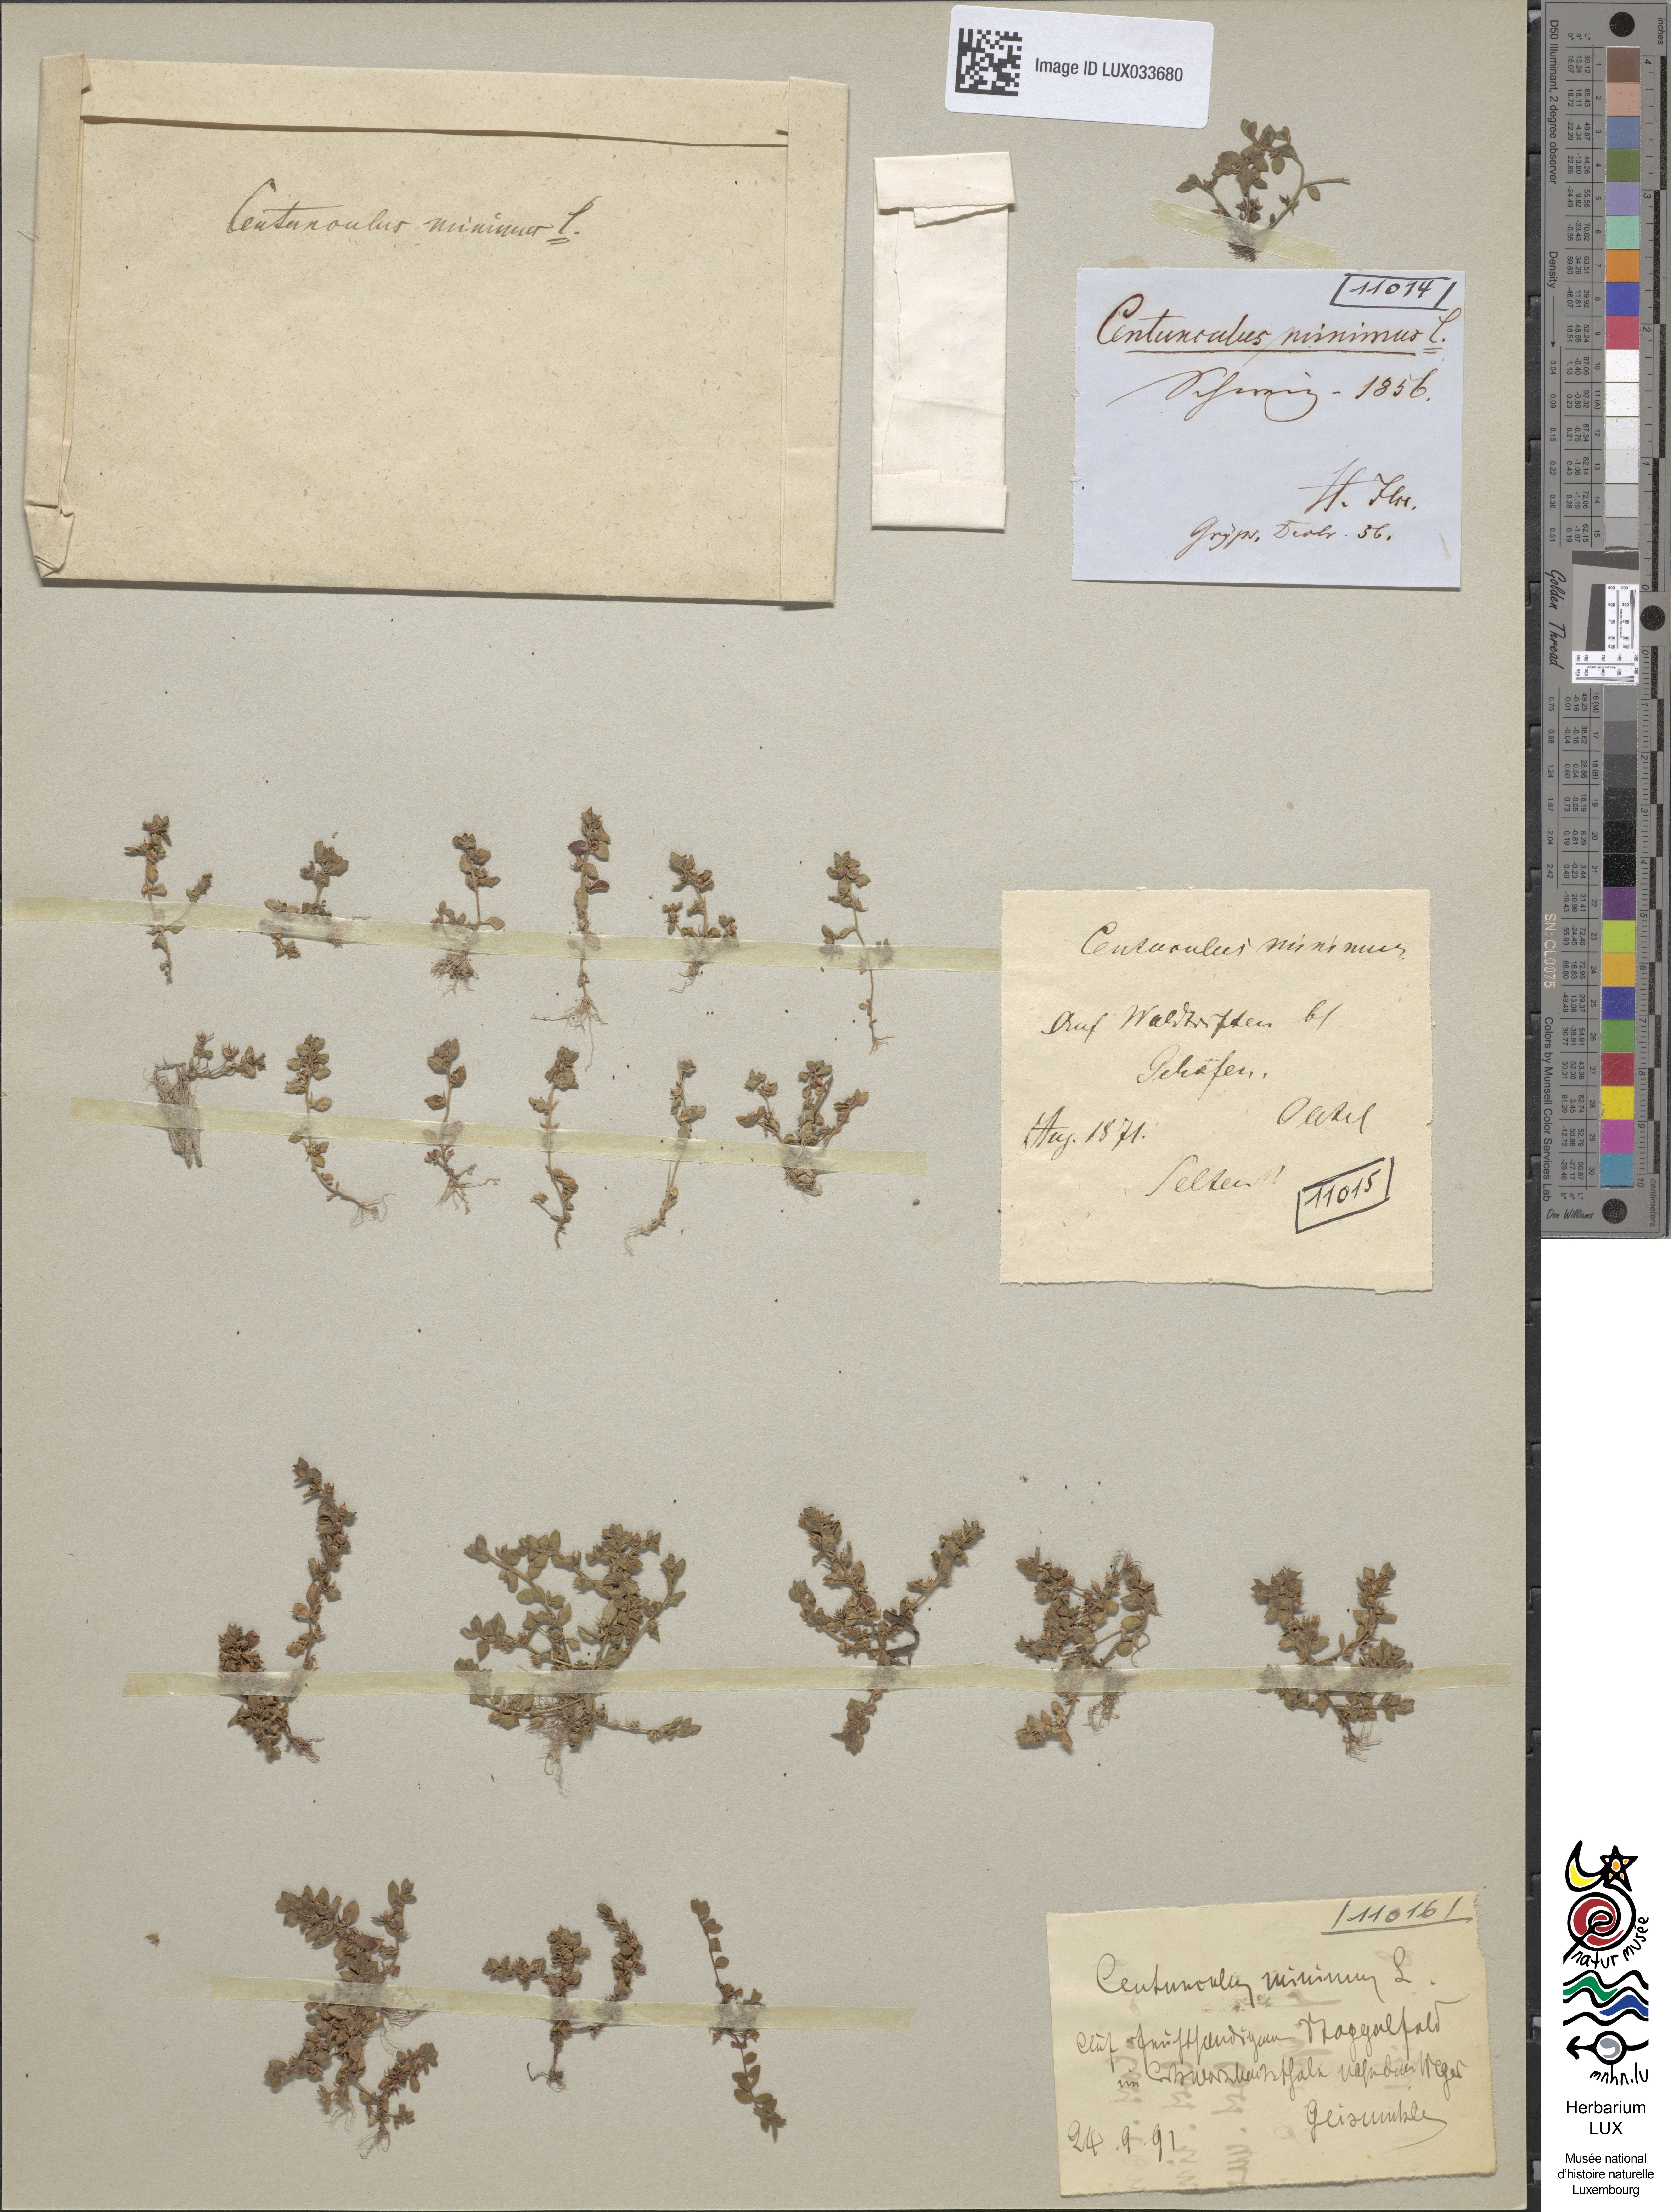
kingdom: Plantae
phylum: Tracheophyta
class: Magnoliopsida
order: Ericales
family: Primulaceae
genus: Lysimachia
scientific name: Lysimachia minima
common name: Chaffweed
